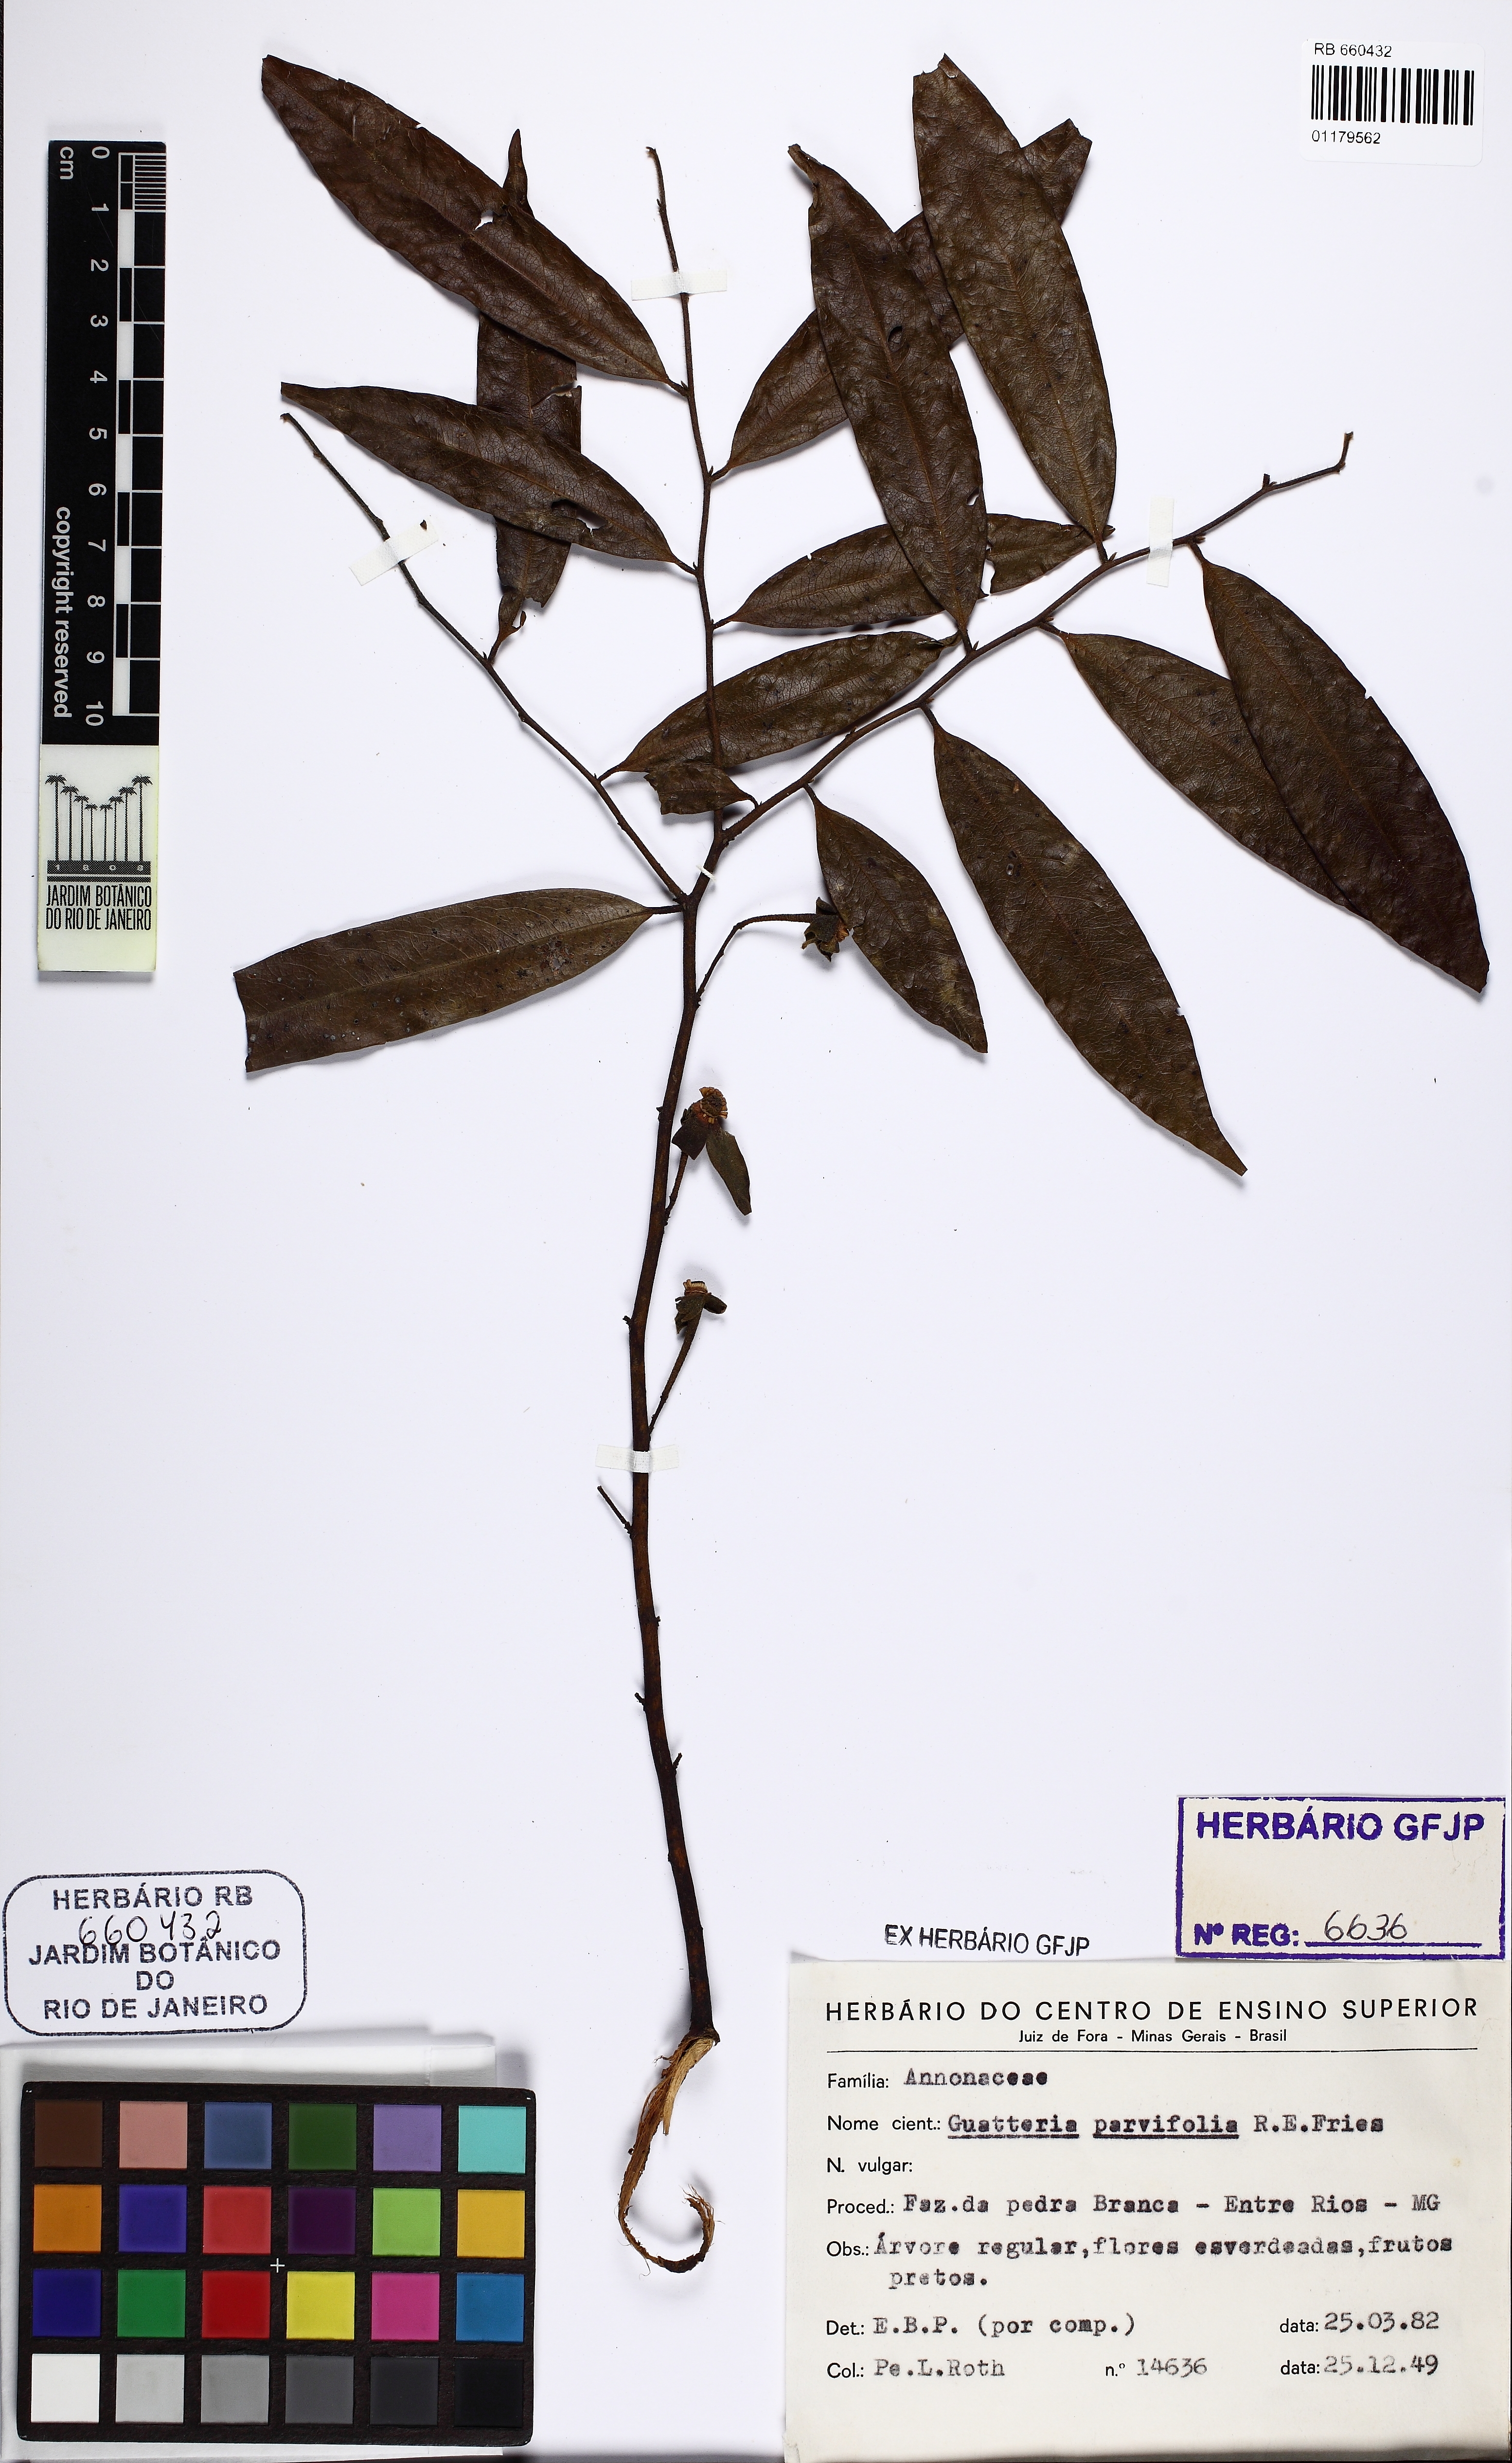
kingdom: Plantae
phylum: Tracheophyta
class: Magnoliopsida
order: Magnoliales
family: Annonaceae
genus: Guatteria
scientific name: Guatteria australis
